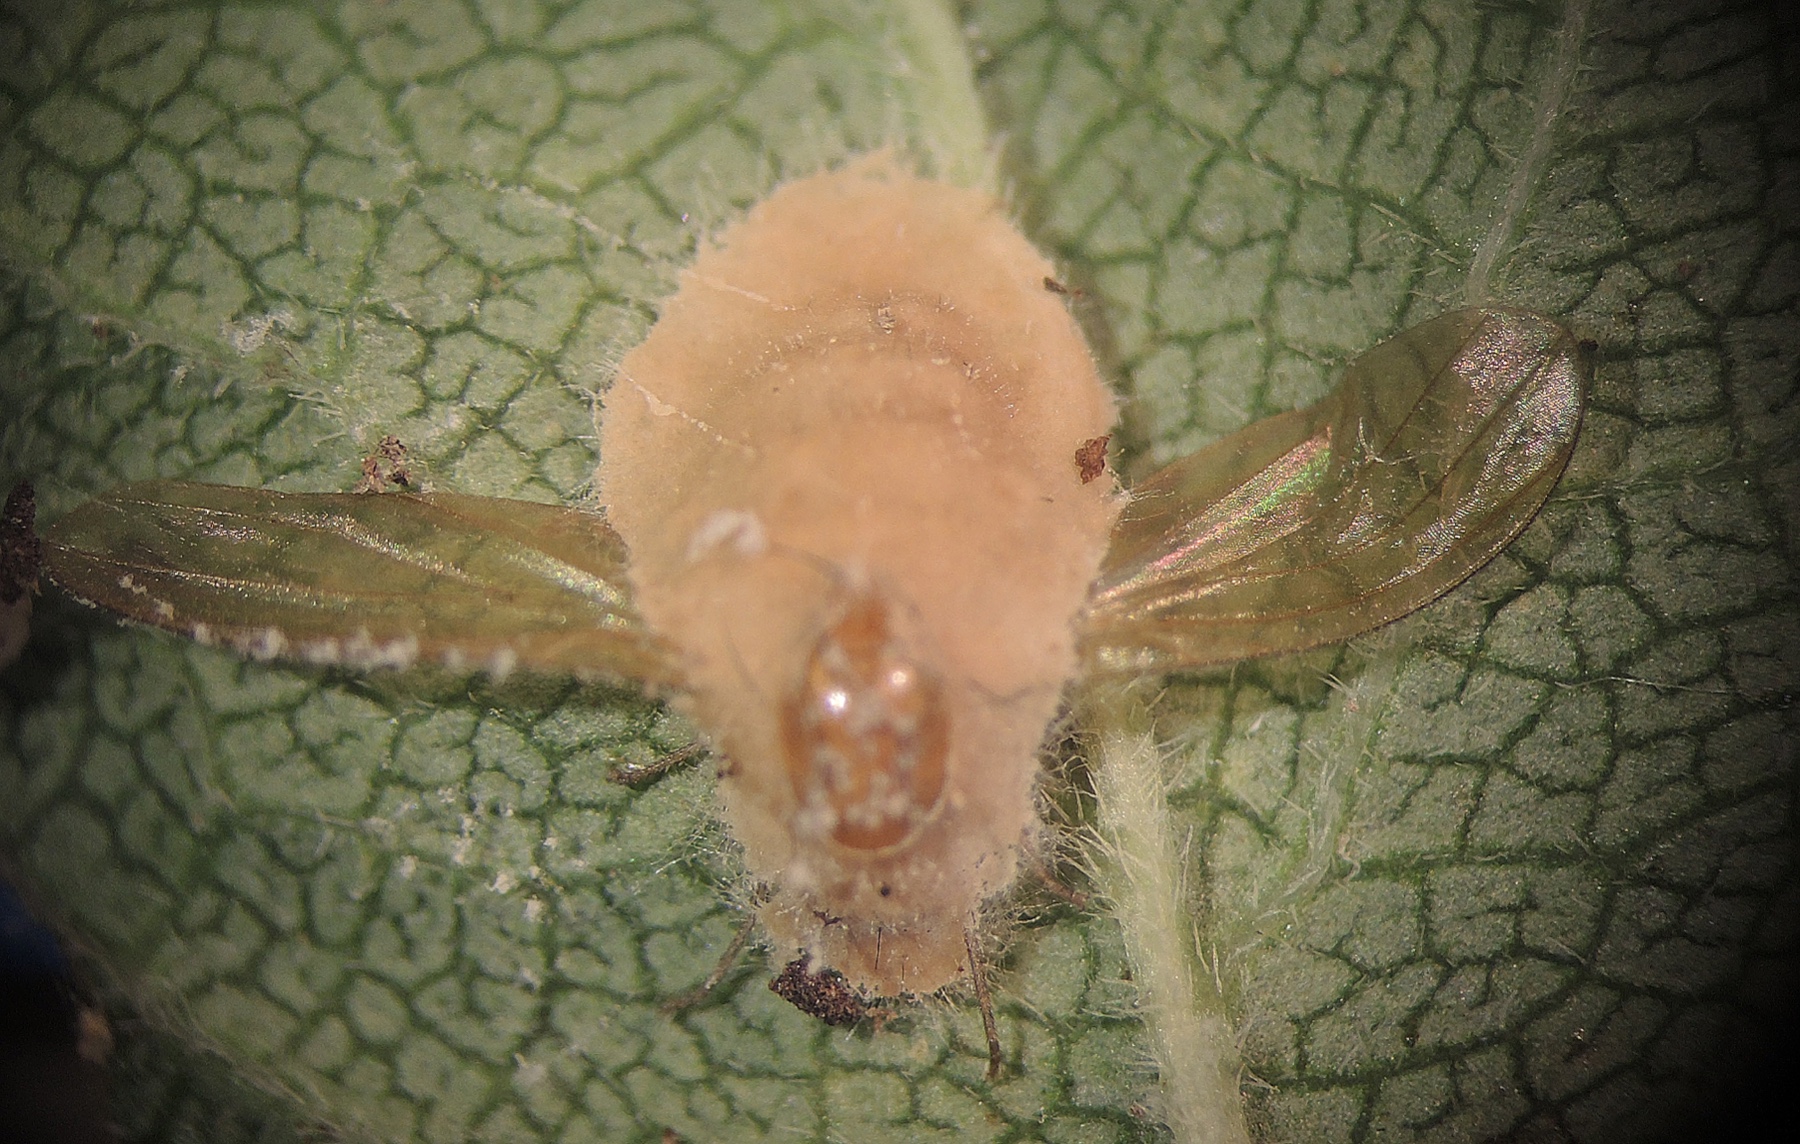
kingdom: Fungi
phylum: Entomophthoromycota
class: Entomophthoromycetes
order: Entomophthorales
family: Entomophthoraceae
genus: Zoophthora
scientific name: Zoophthora
